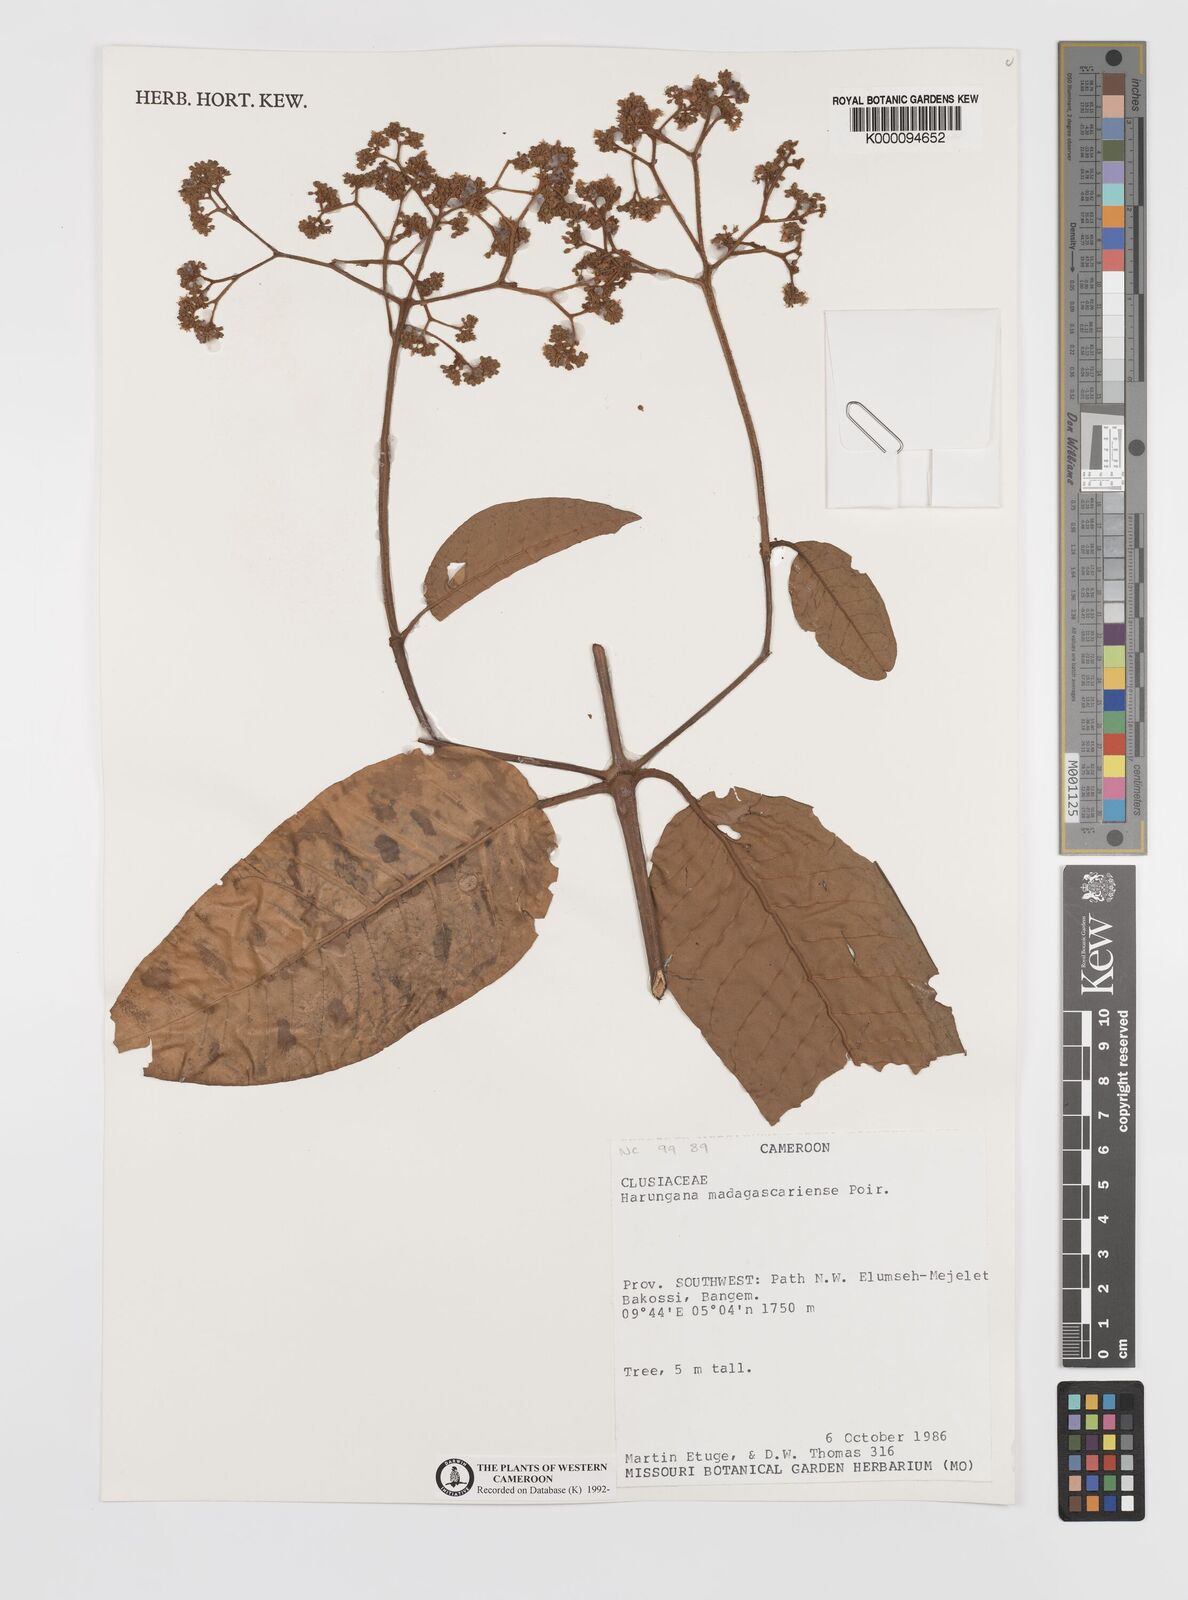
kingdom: Plantae
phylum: Tracheophyta
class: Magnoliopsida
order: Malpighiales
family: Hypericaceae
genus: Harungana
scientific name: Harungana madagascariensis
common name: Orange milktree
